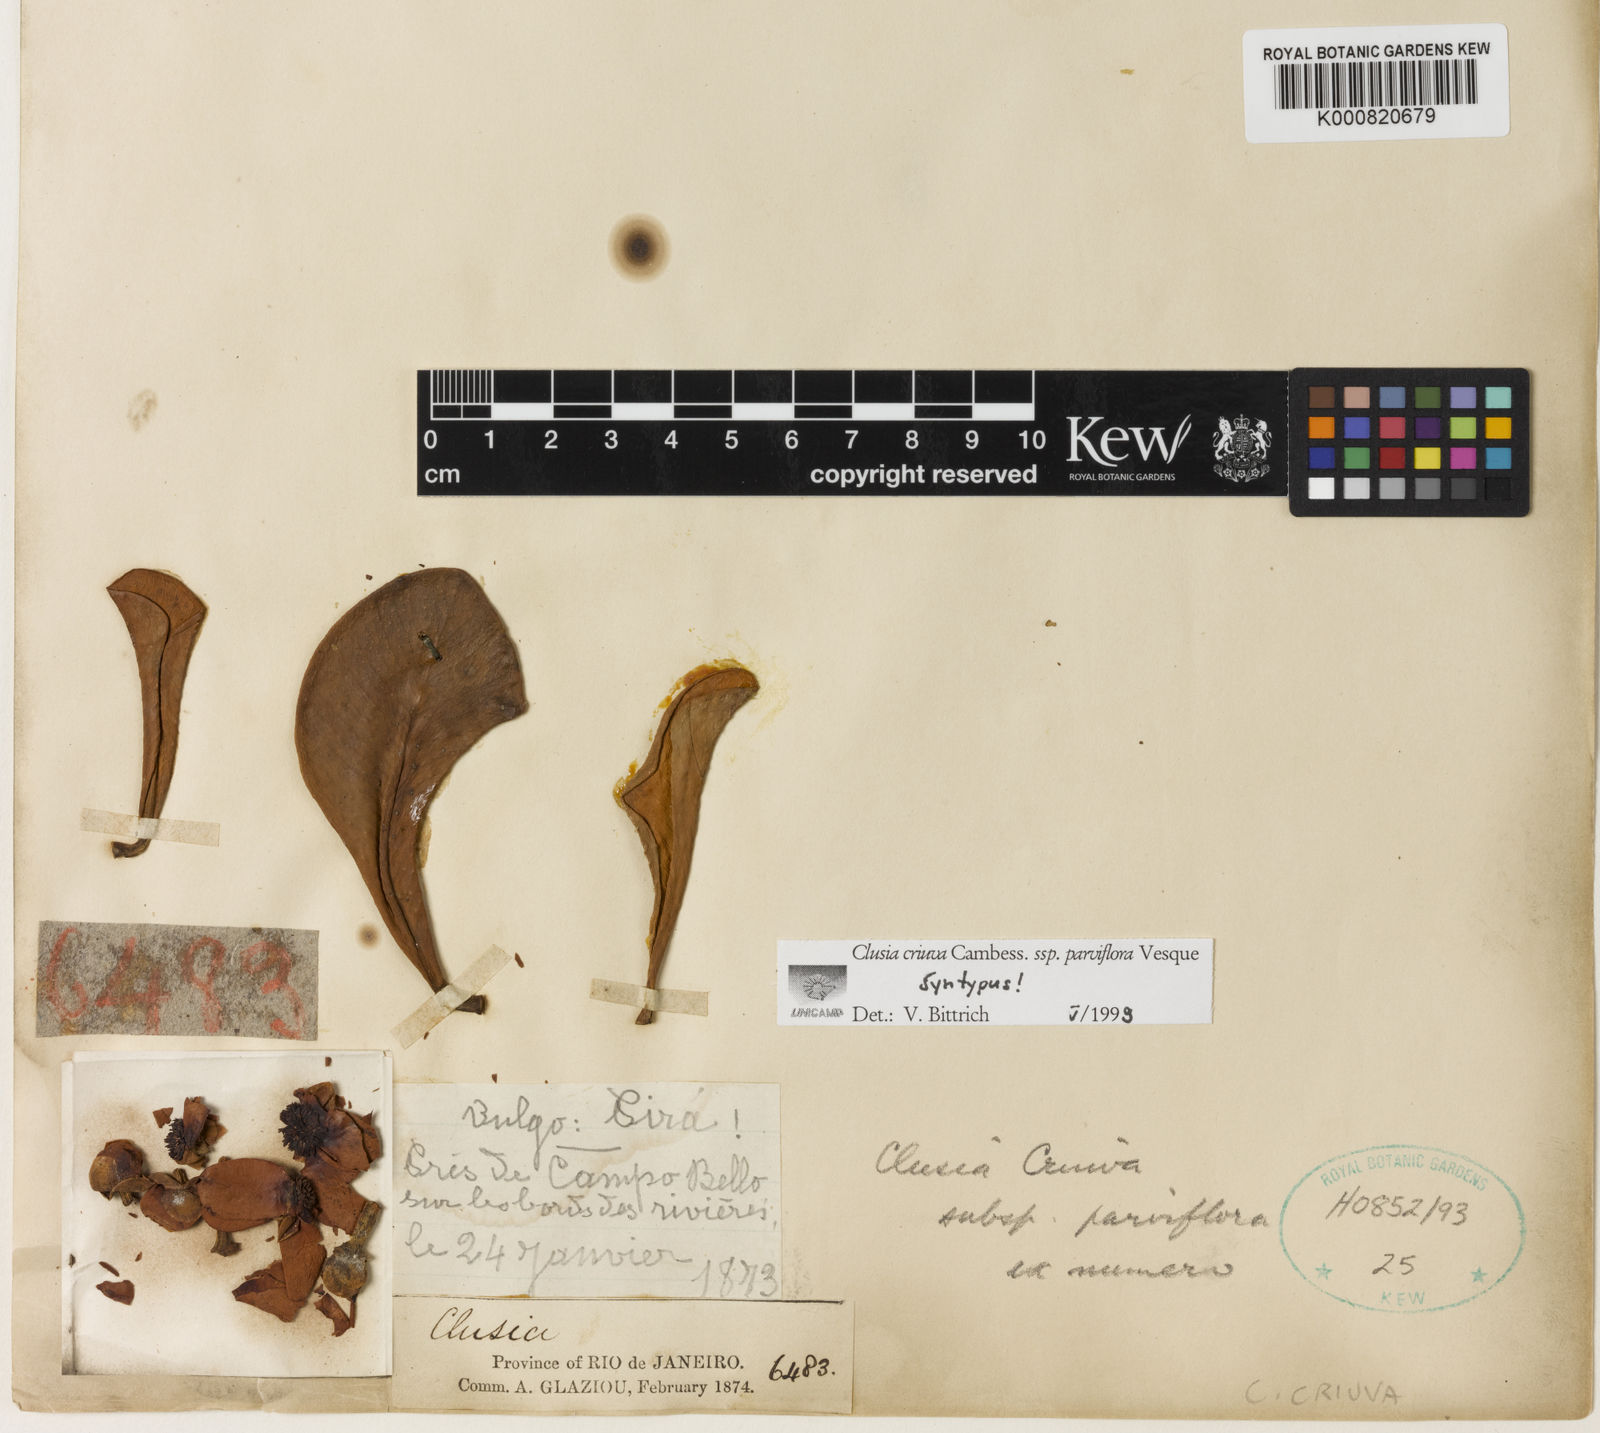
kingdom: Plantae
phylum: Tracheophyta
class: Magnoliopsida
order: Malpighiales
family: Clusiaceae
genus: Clusia
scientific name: Clusia criuva
